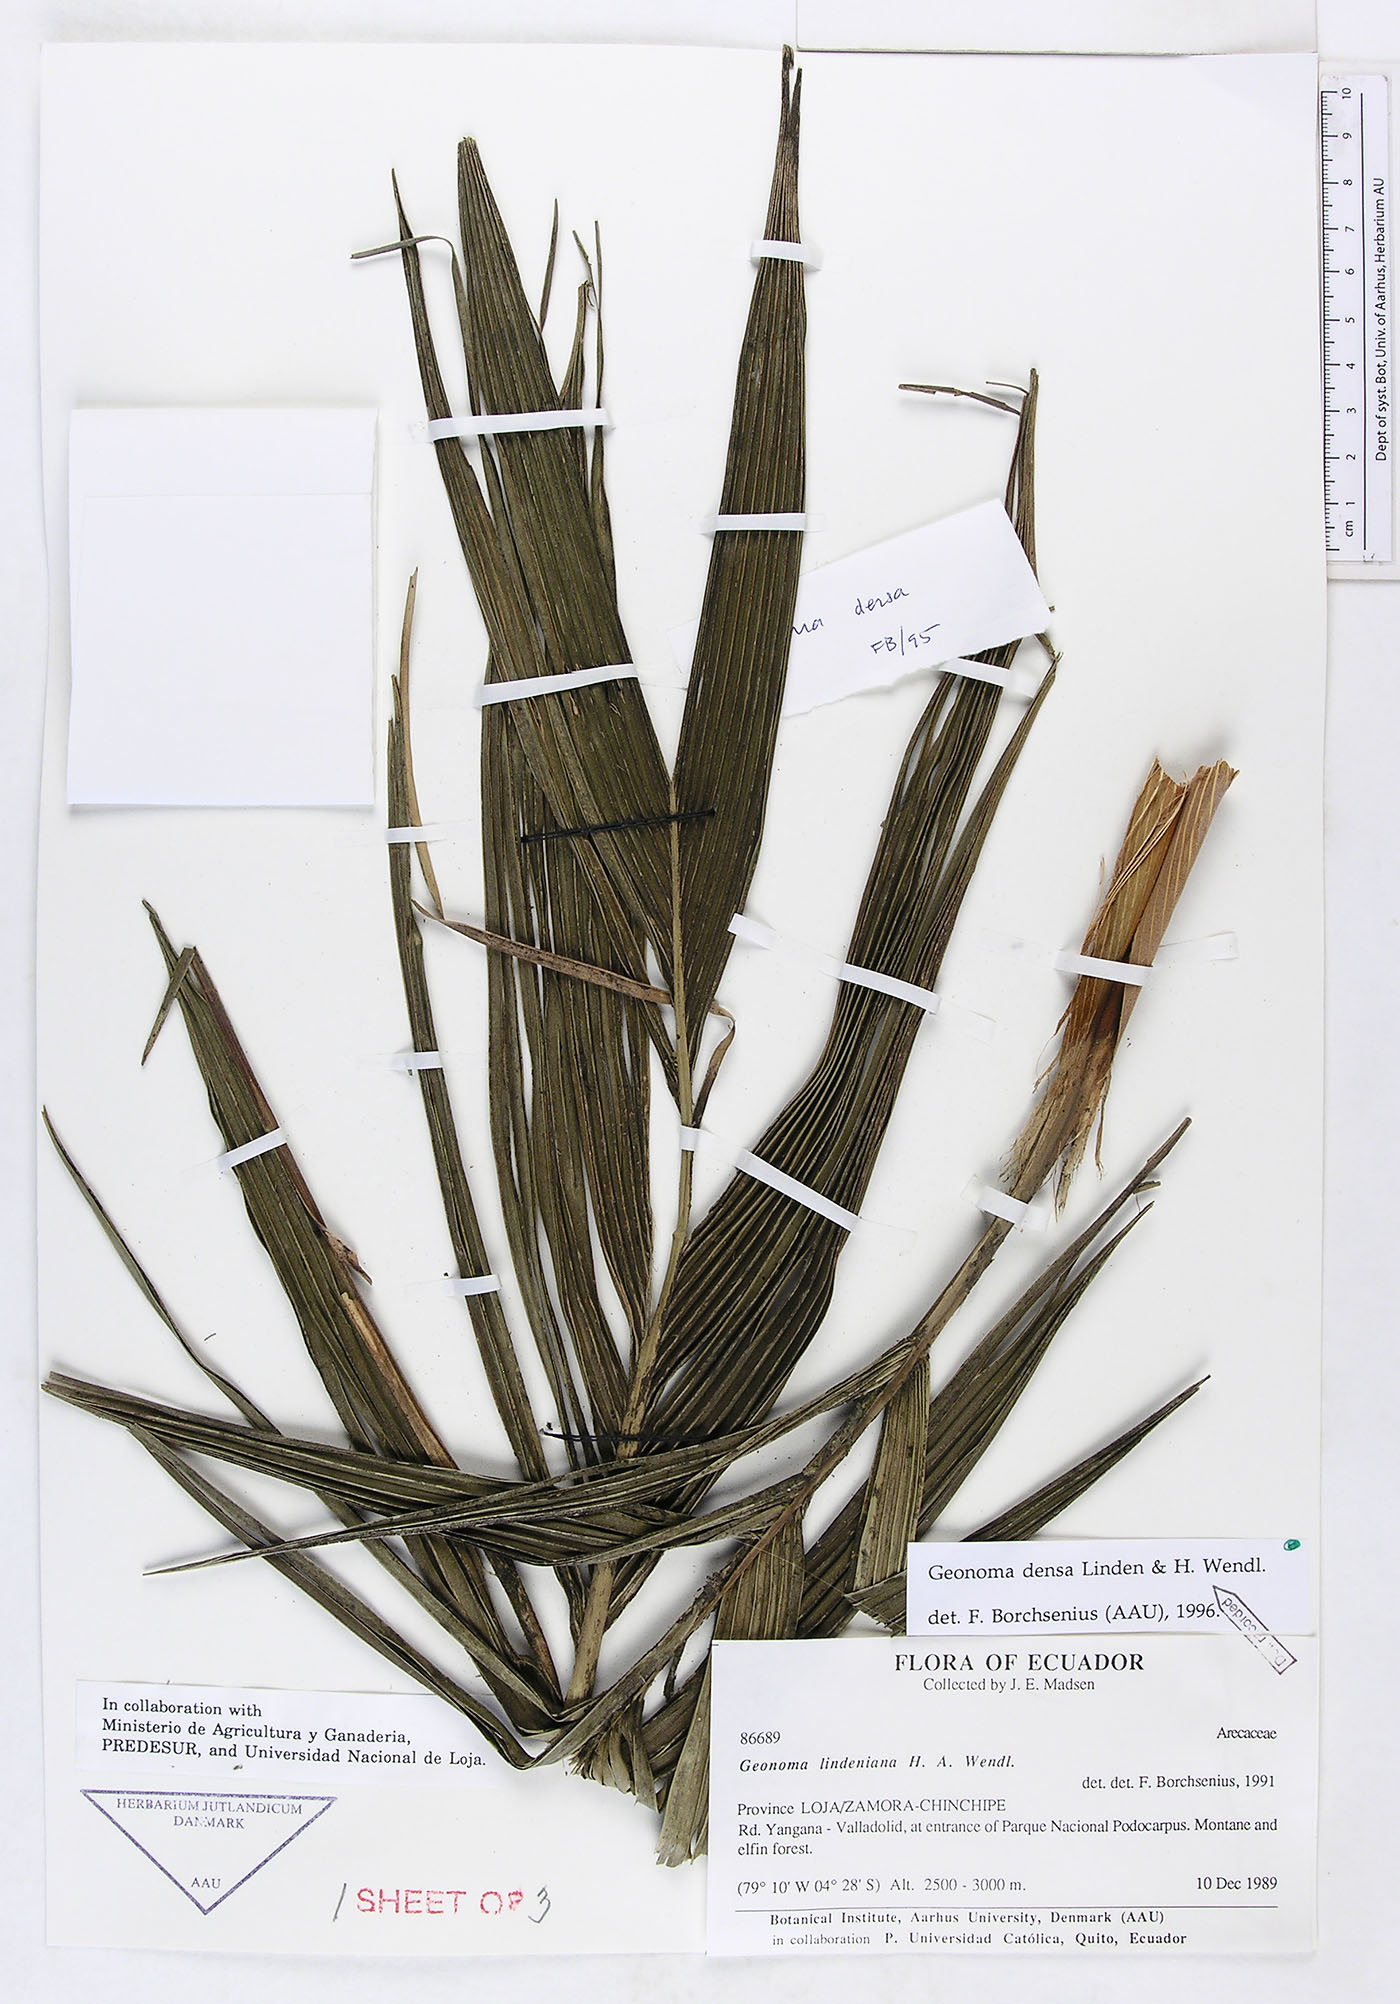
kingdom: Plantae
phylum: Tracheophyta
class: Liliopsida
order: Arecales
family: Arecaceae
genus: Geonoma
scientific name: Geonoma undata
